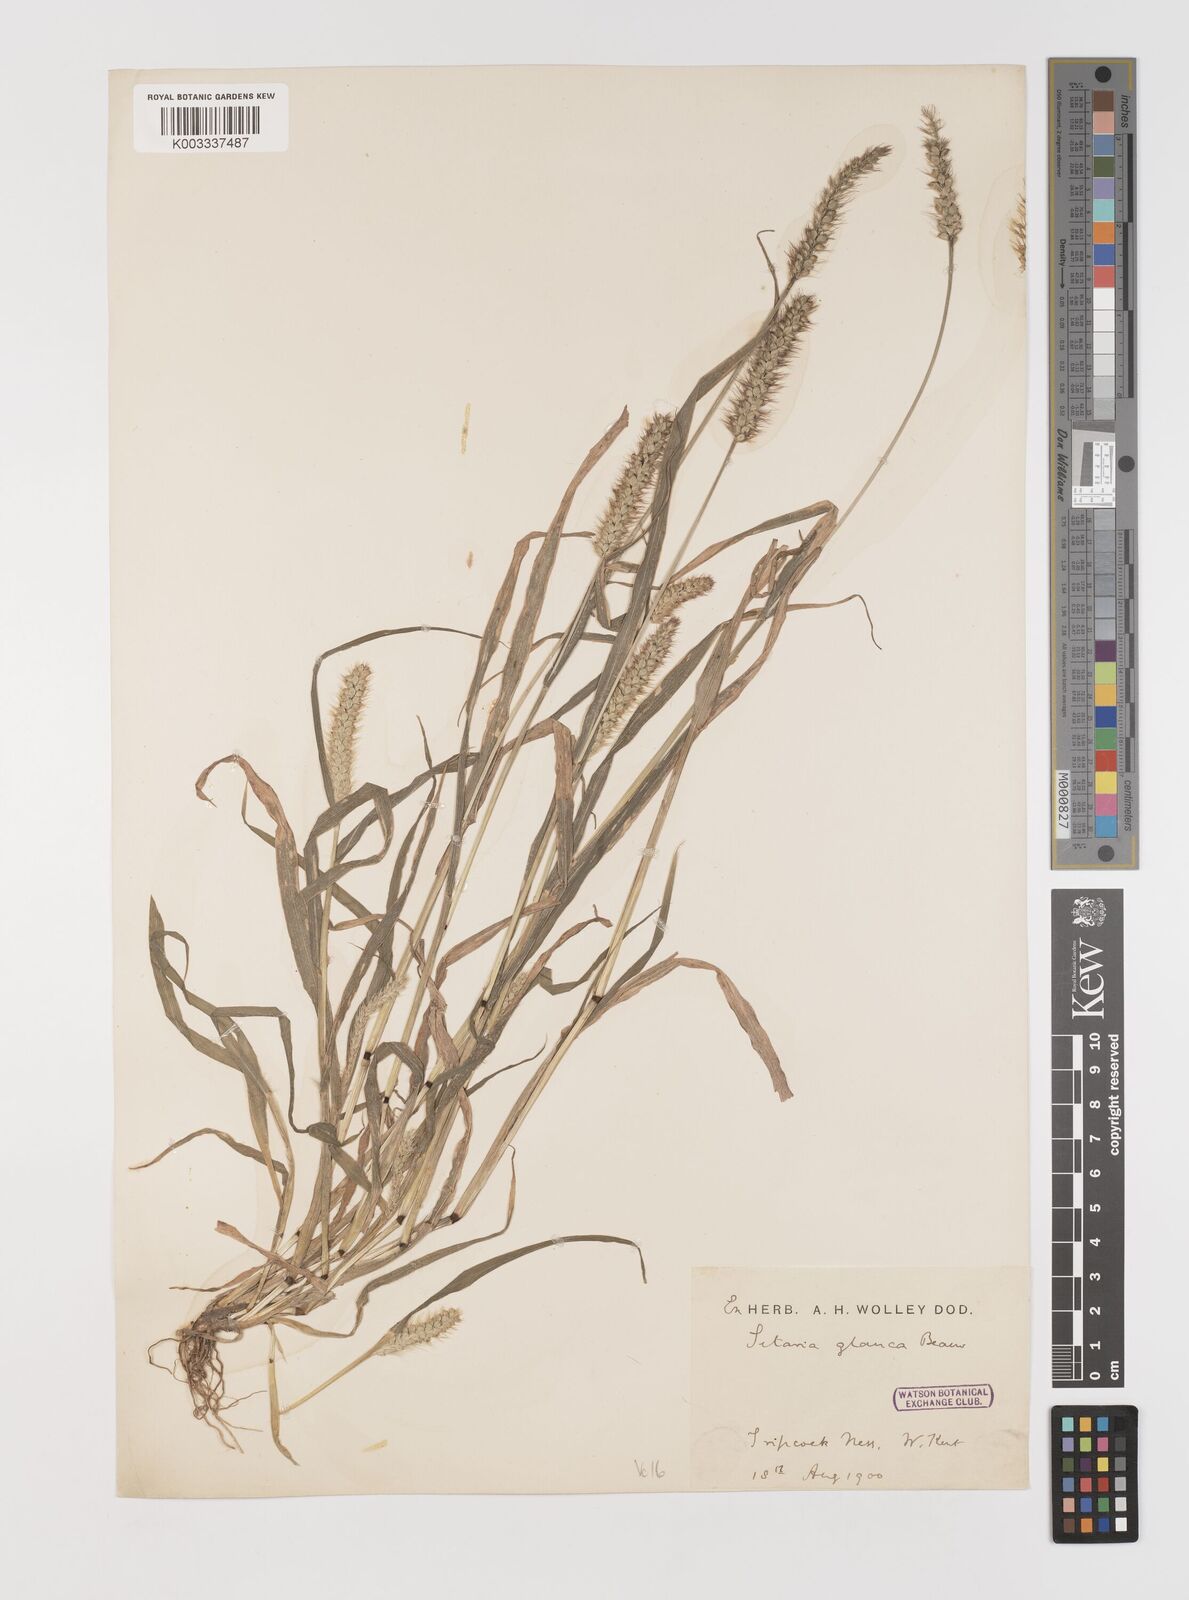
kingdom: Plantae
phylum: Tracheophyta
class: Liliopsida
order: Poales
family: Poaceae
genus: Setaria
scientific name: Setaria pumila
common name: Yellow bristle-grass
